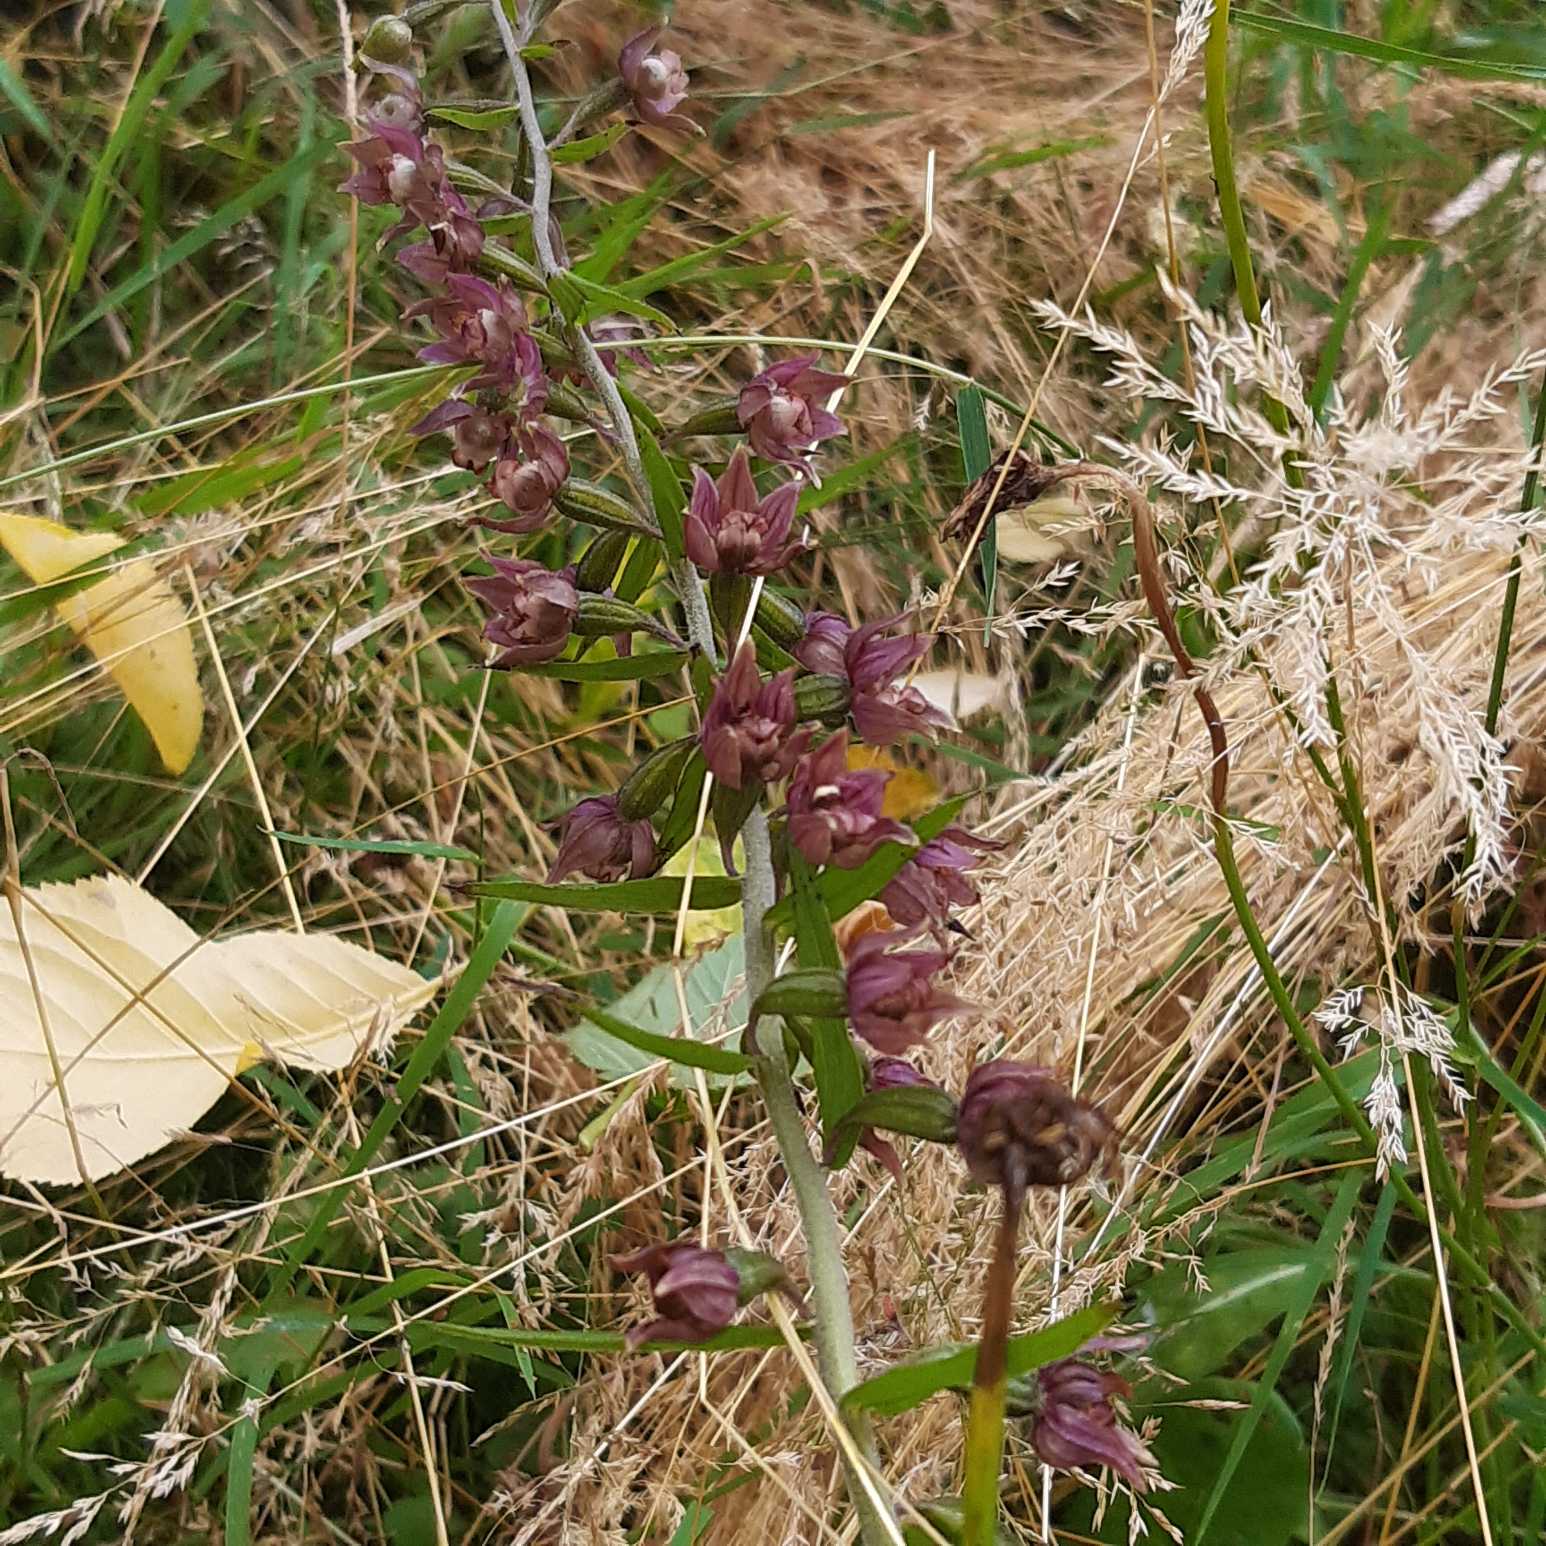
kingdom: Plantae
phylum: Tracheophyta
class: Liliopsida
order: Asparagales
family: Orchidaceae
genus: Epipactis
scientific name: Epipactis helleborine
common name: Skov-hullæbe
